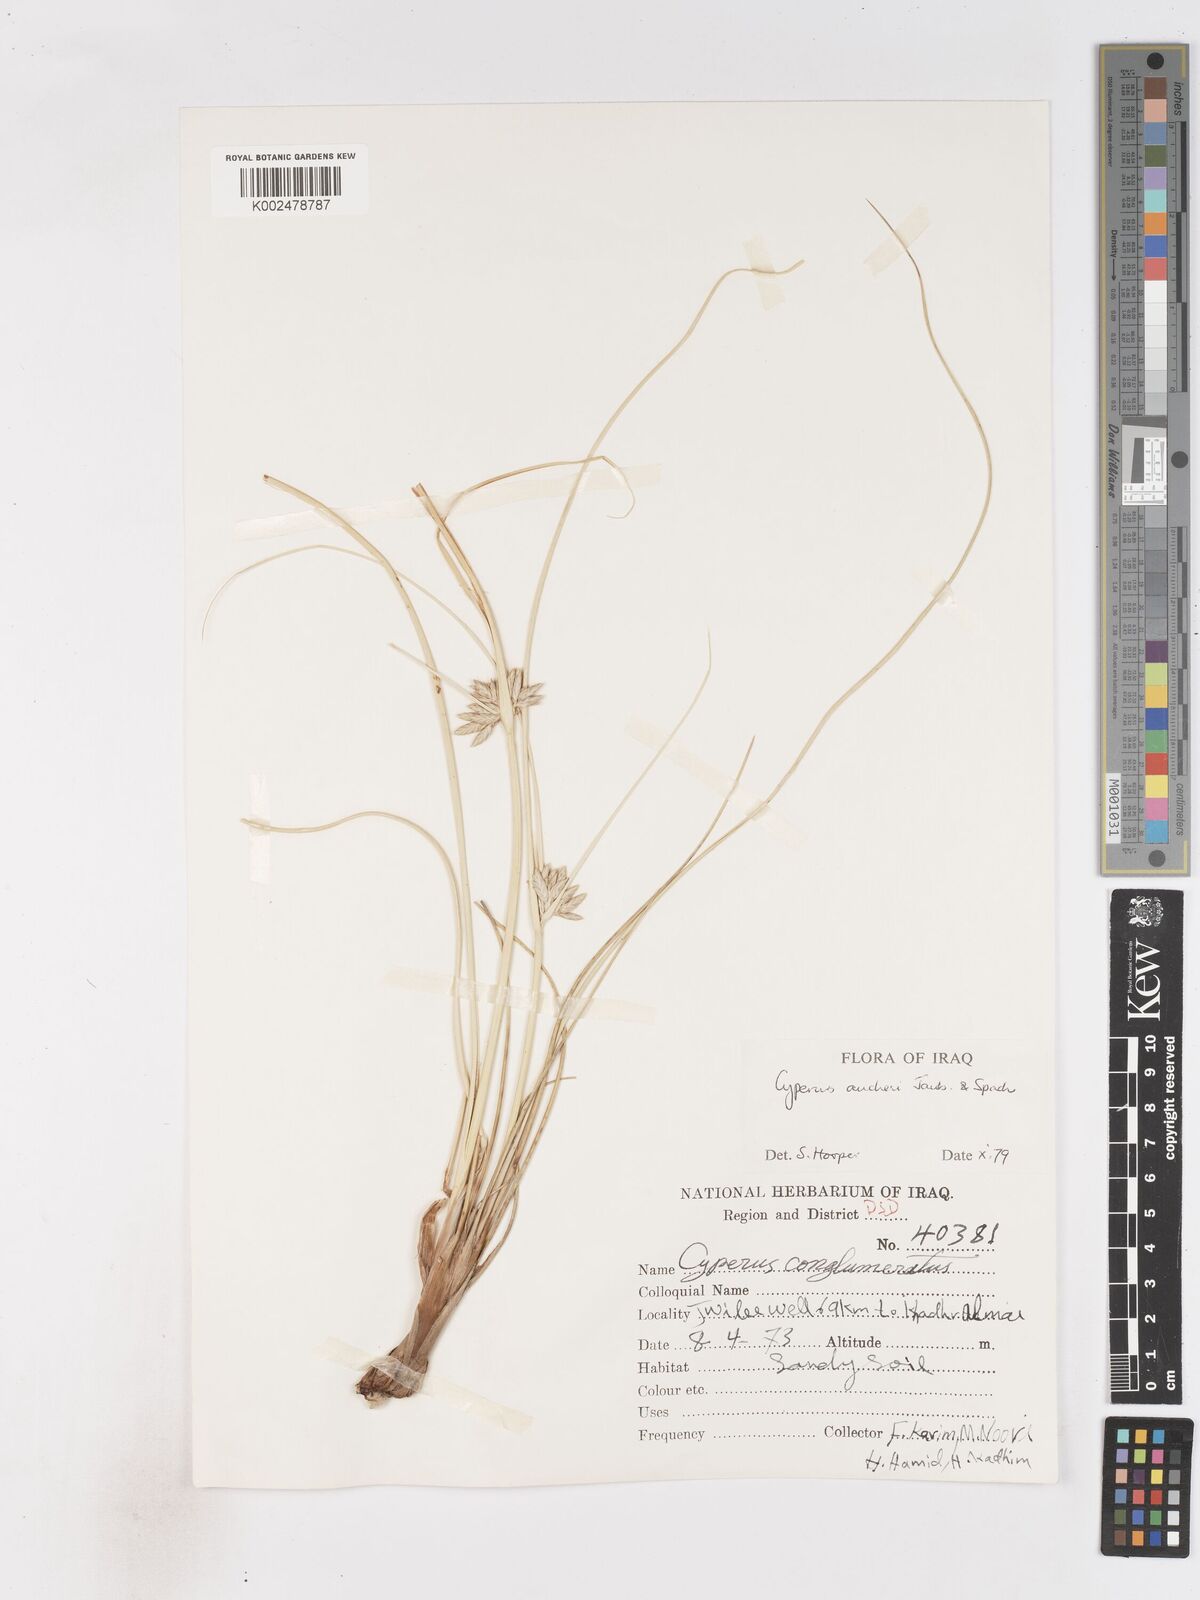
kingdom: Plantae
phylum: Tracheophyta
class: Liliopsida
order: Poales
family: Cyperaceae
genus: Cyperus
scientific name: Cyperus aucheri
